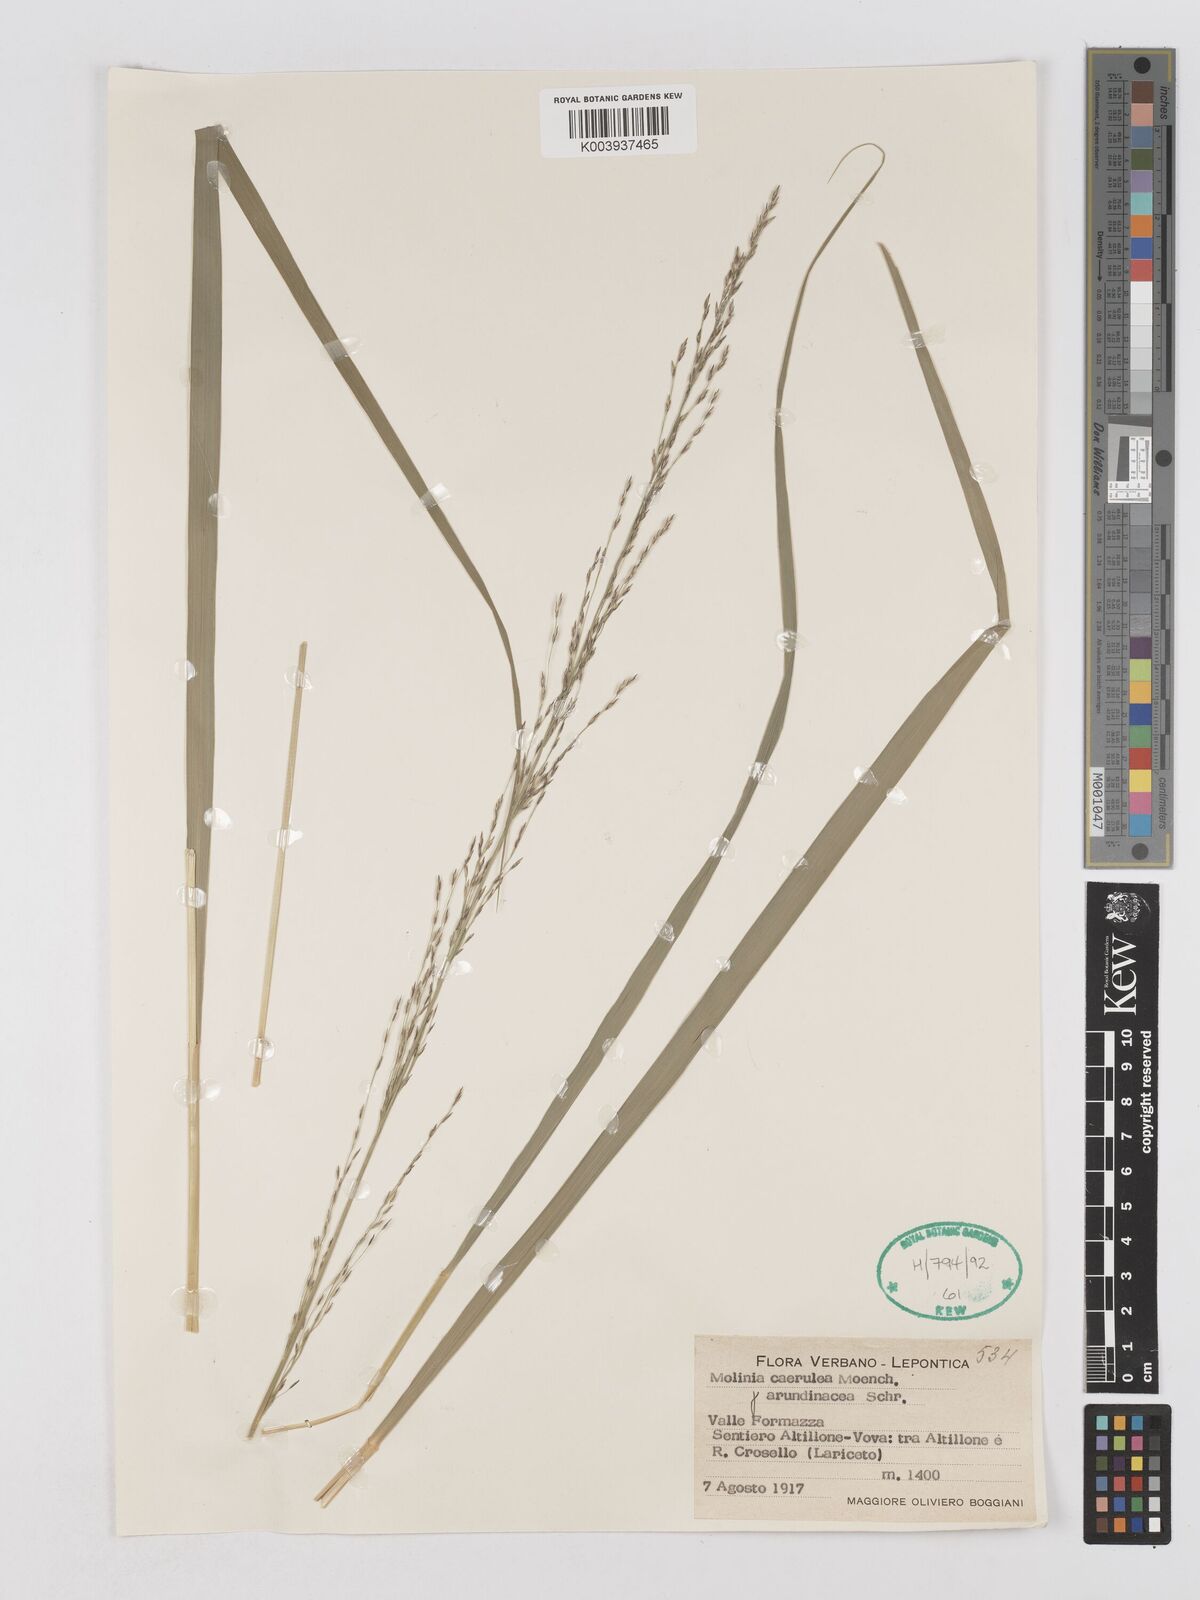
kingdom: Plantae
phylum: Tracheophyta
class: Liliopsida
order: Poales
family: Poaceae
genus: Molinia
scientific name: Molinia caerulea
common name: Purple moor-grass
